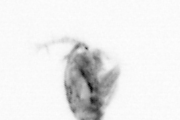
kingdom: Animalia
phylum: Arthropoda
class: Copepoda
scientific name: Copepoda
